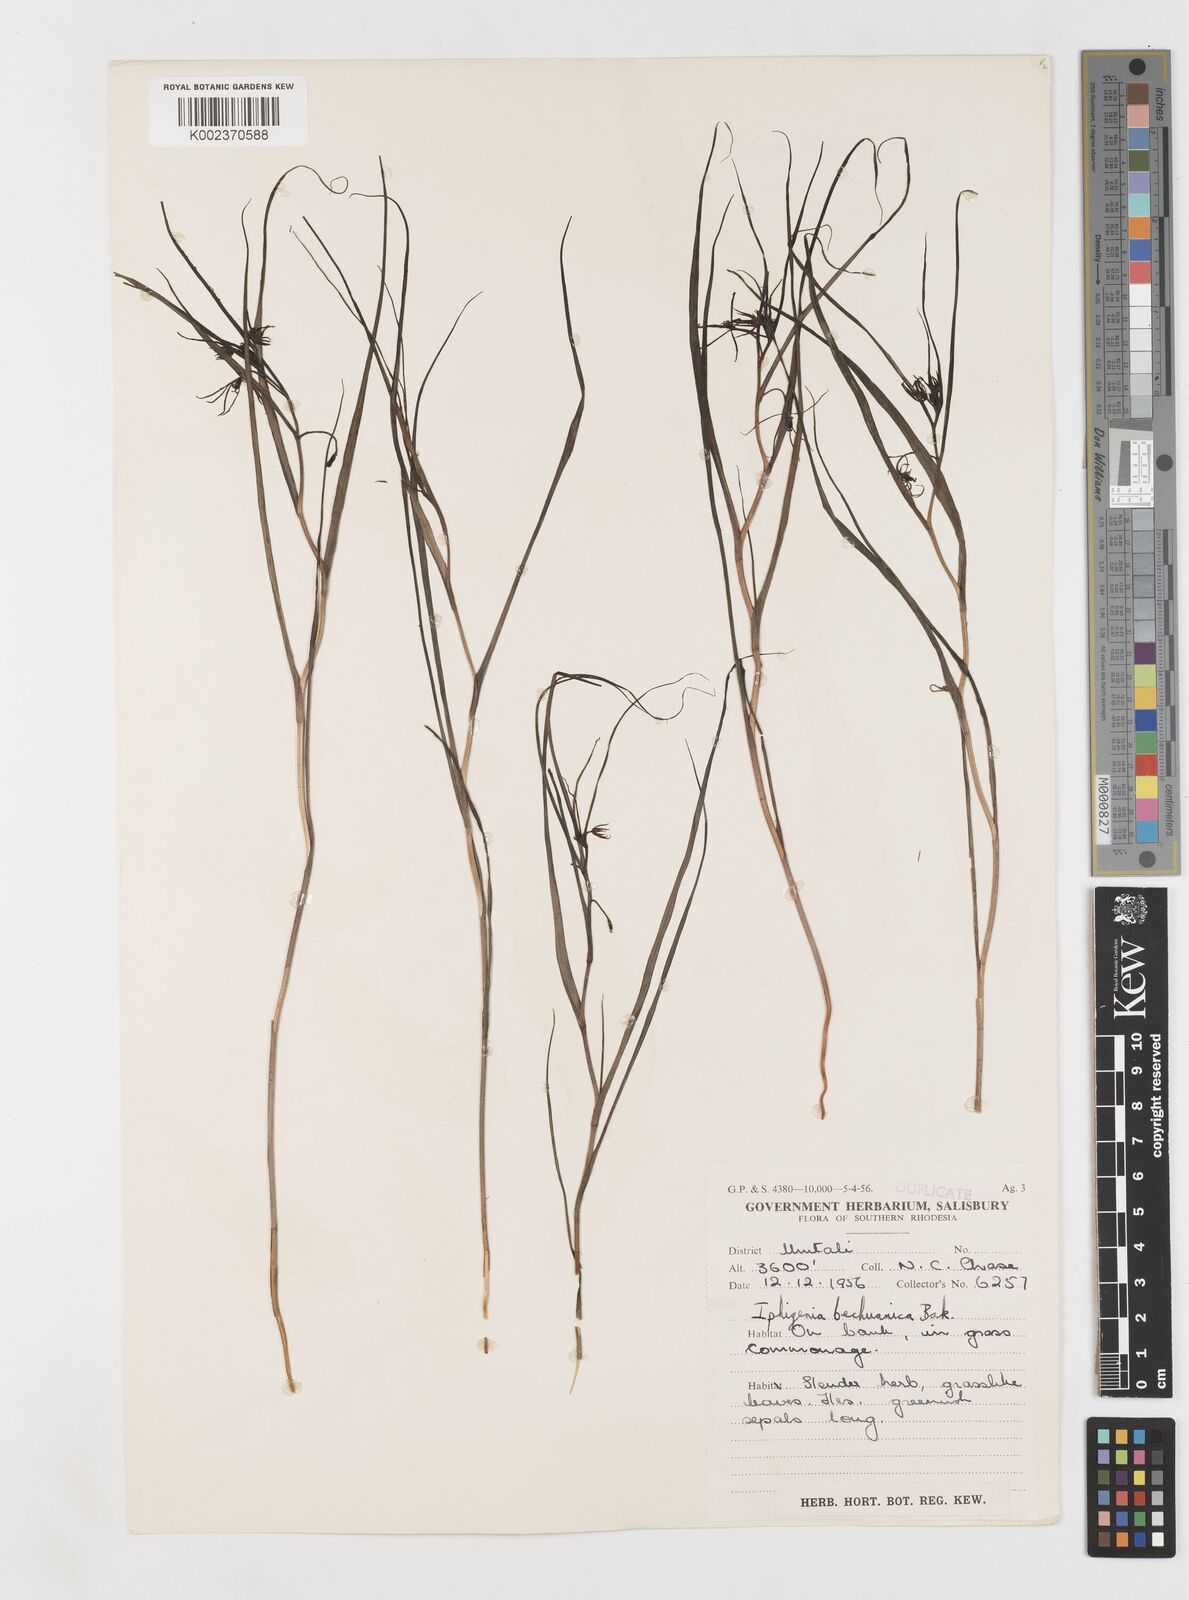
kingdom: Plantae
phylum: Tracheophyta
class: Liliopsida
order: Liliales
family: Colchicaceae
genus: Iphigenia
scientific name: Iphigenia oliveri
